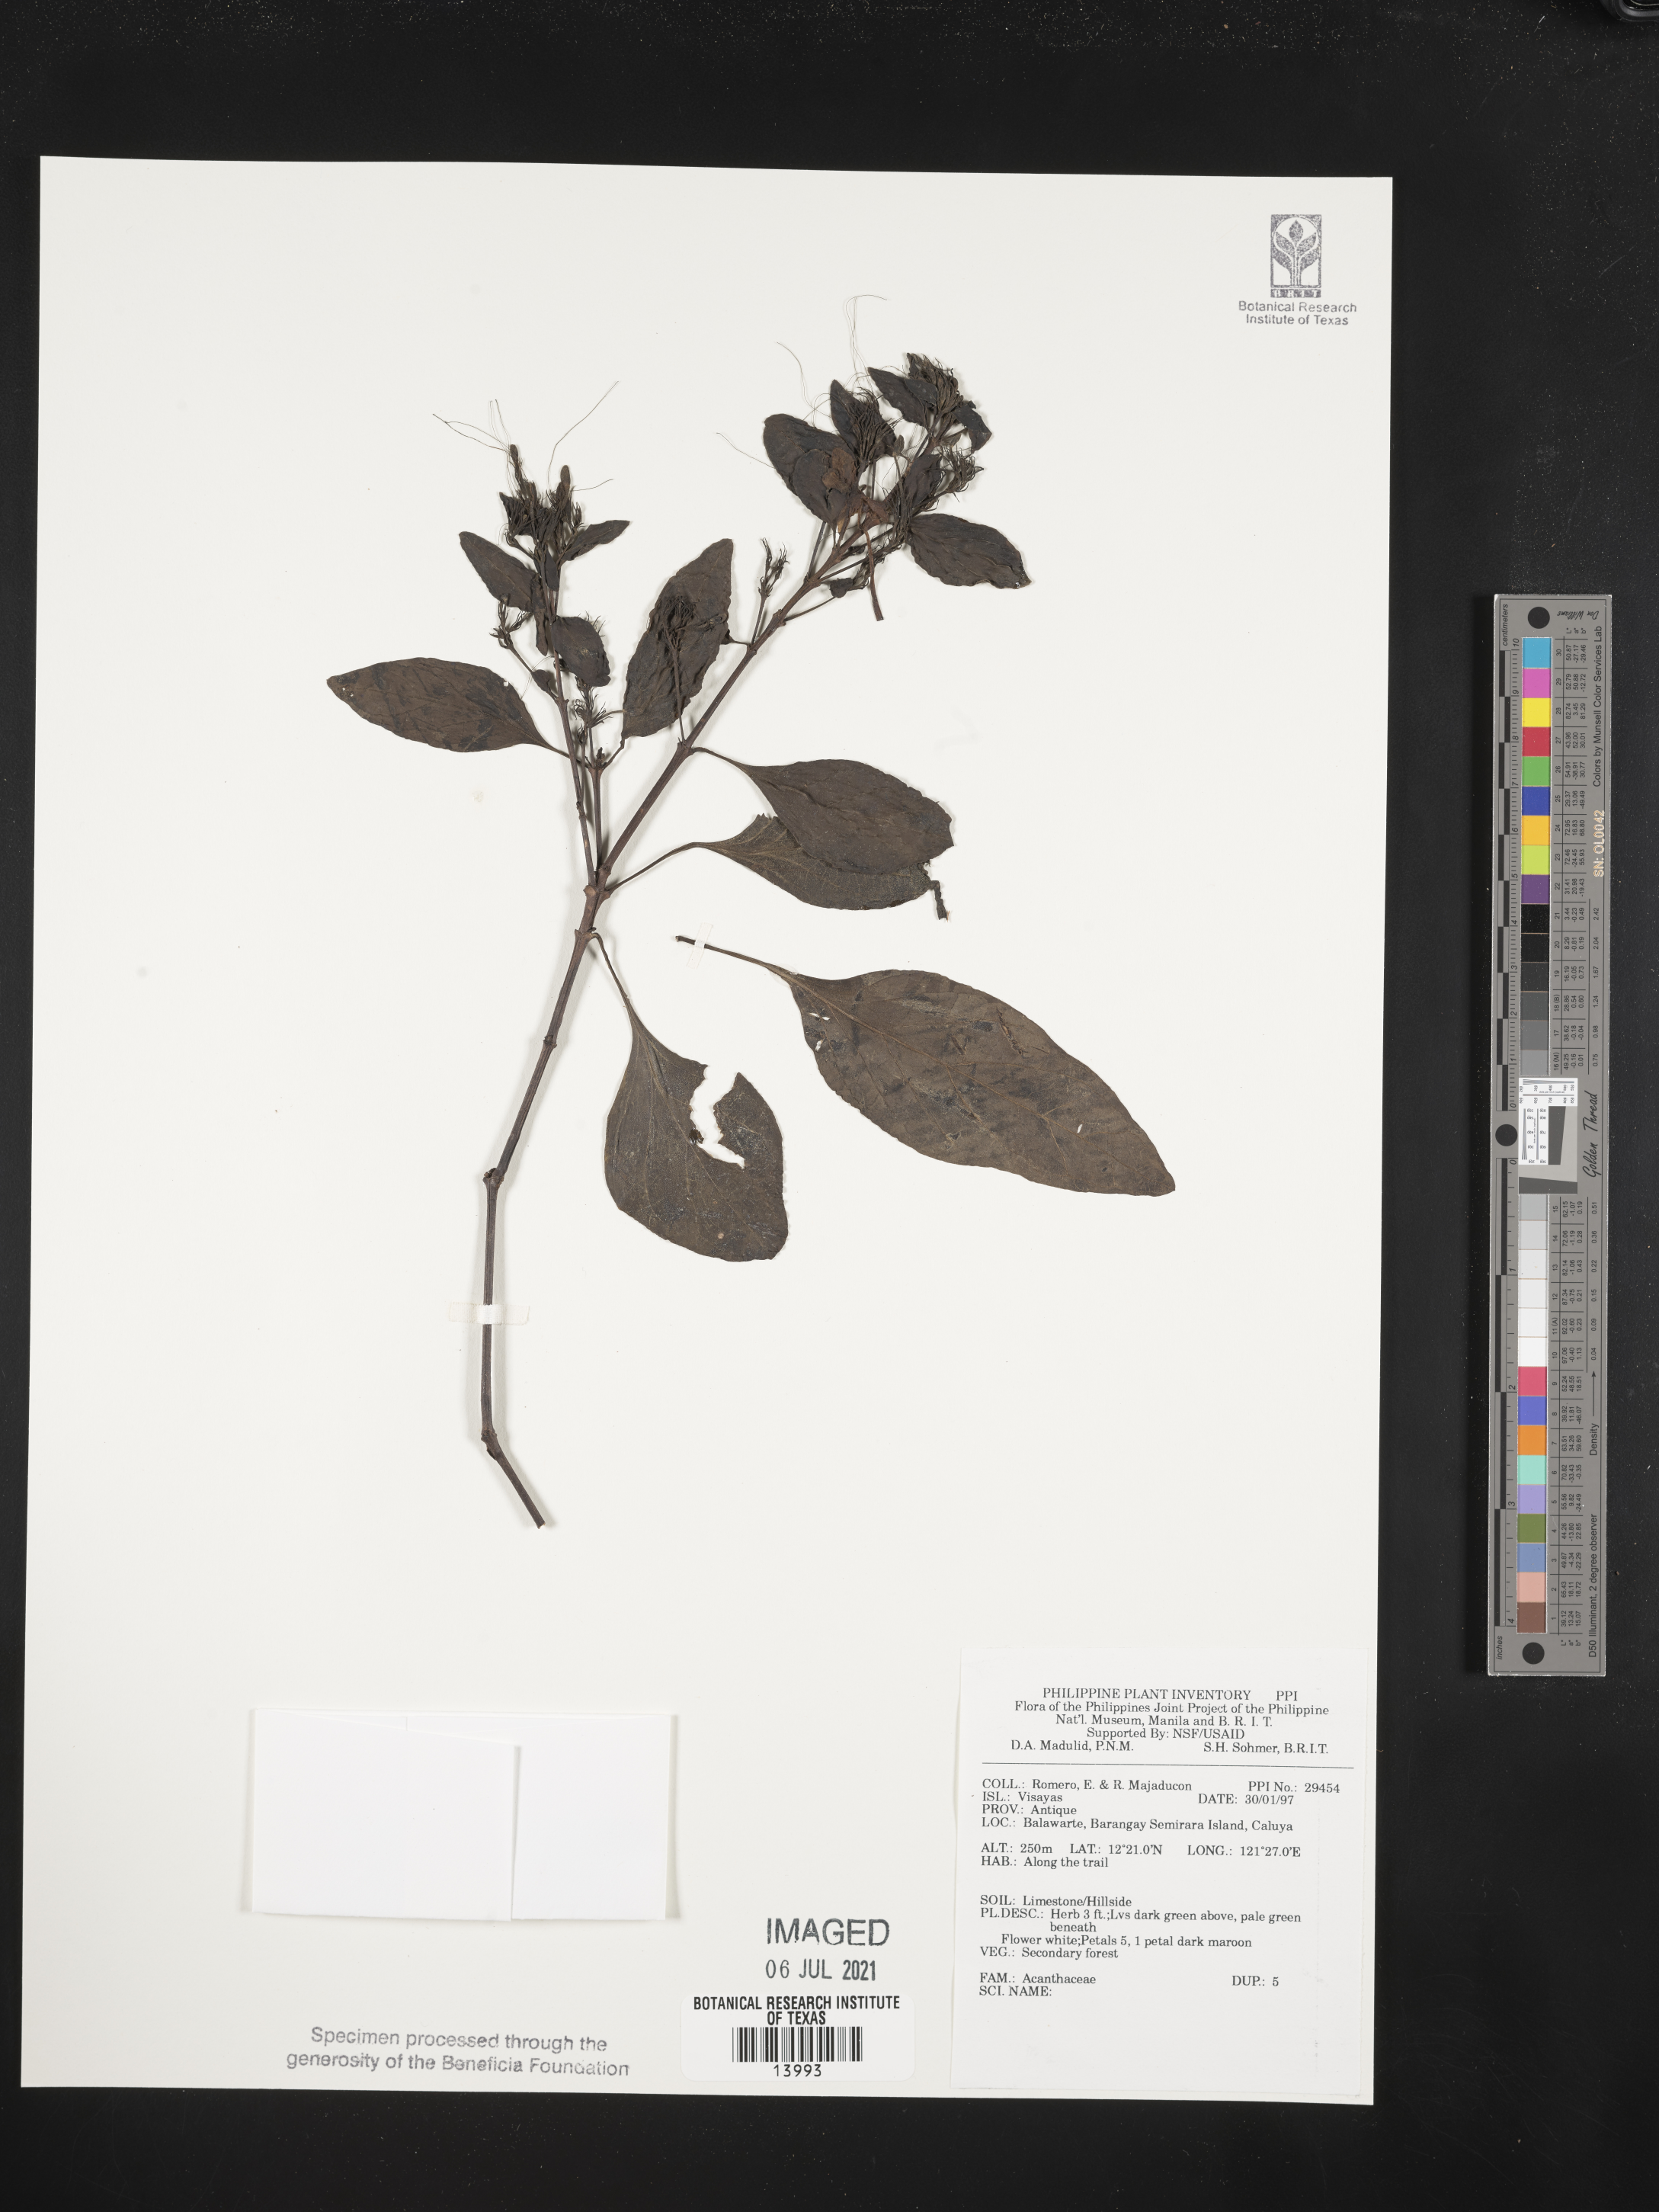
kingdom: Plantae
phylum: Tracheophyta
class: Magnoliopsida
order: Lamiales
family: Acanthaceae
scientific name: Acanthaceae
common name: Acanthaceae
